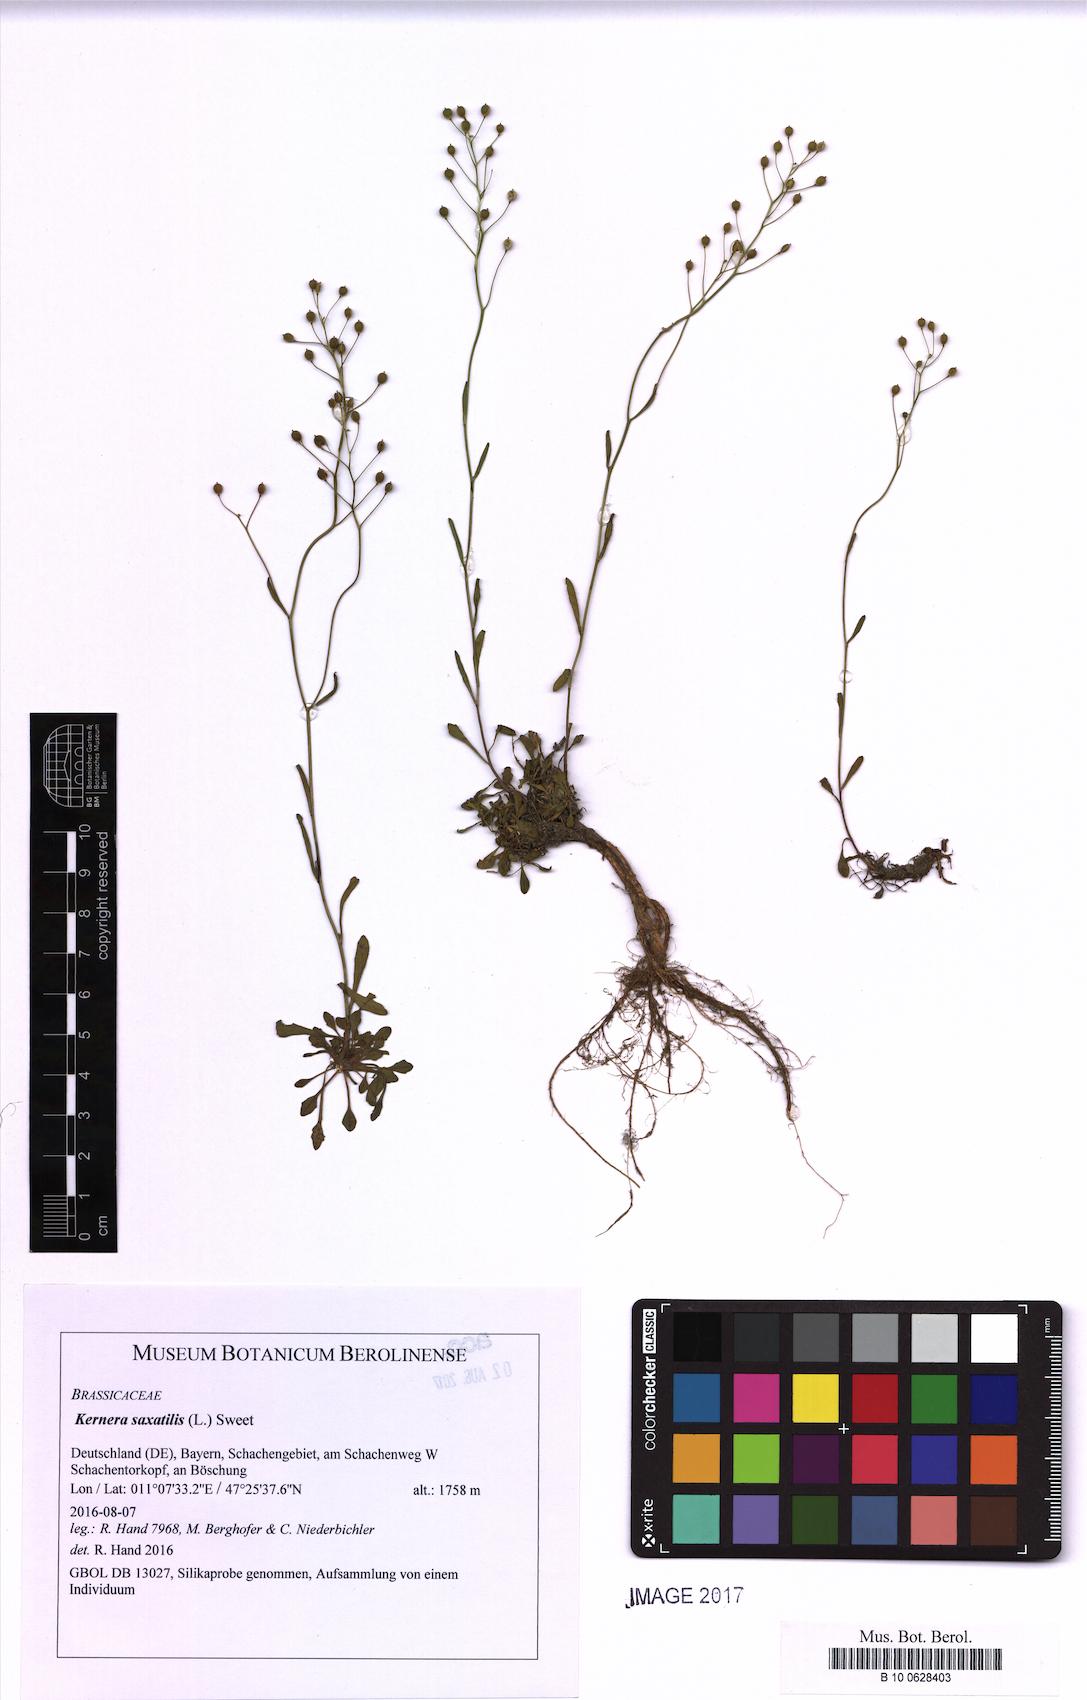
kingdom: Plantae
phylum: Tracheophyta
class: Magnoliopsida
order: Brassicales
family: Brassicaceae
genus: Kernera
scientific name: Kernera saxatilis
